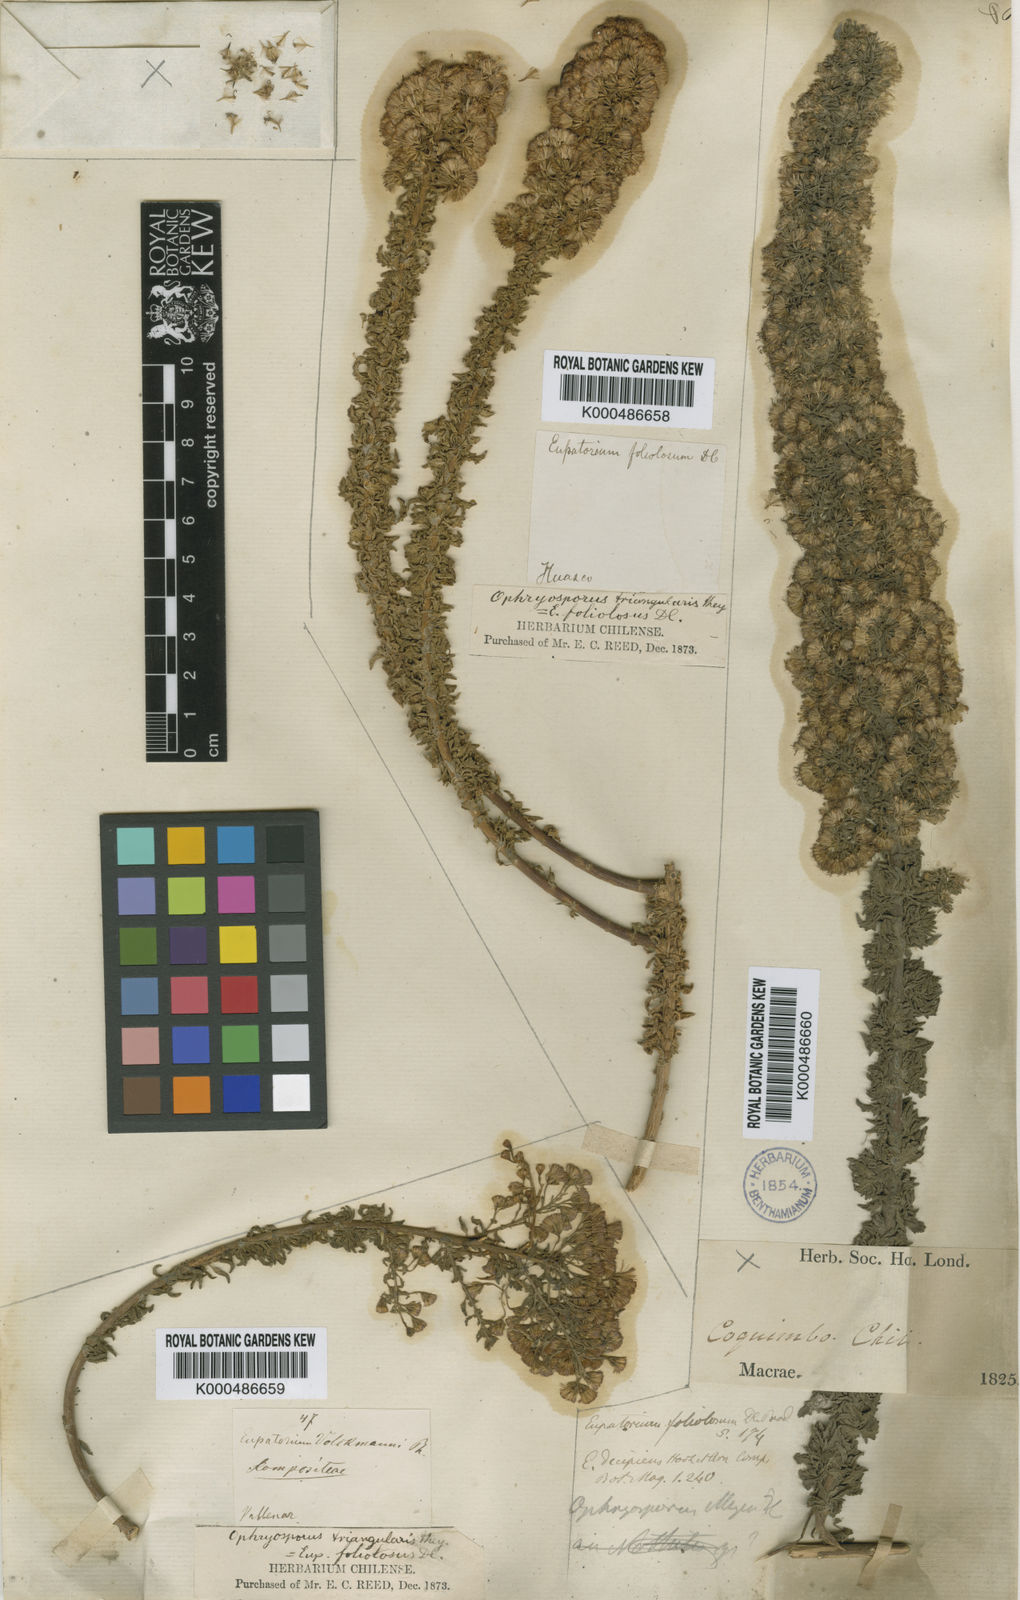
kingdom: Plantae
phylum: Tracheophyta
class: Magnoliopsida
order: Asterales
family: Asteraceae
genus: Ophryosporus
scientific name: Ophryosporus triangularis
